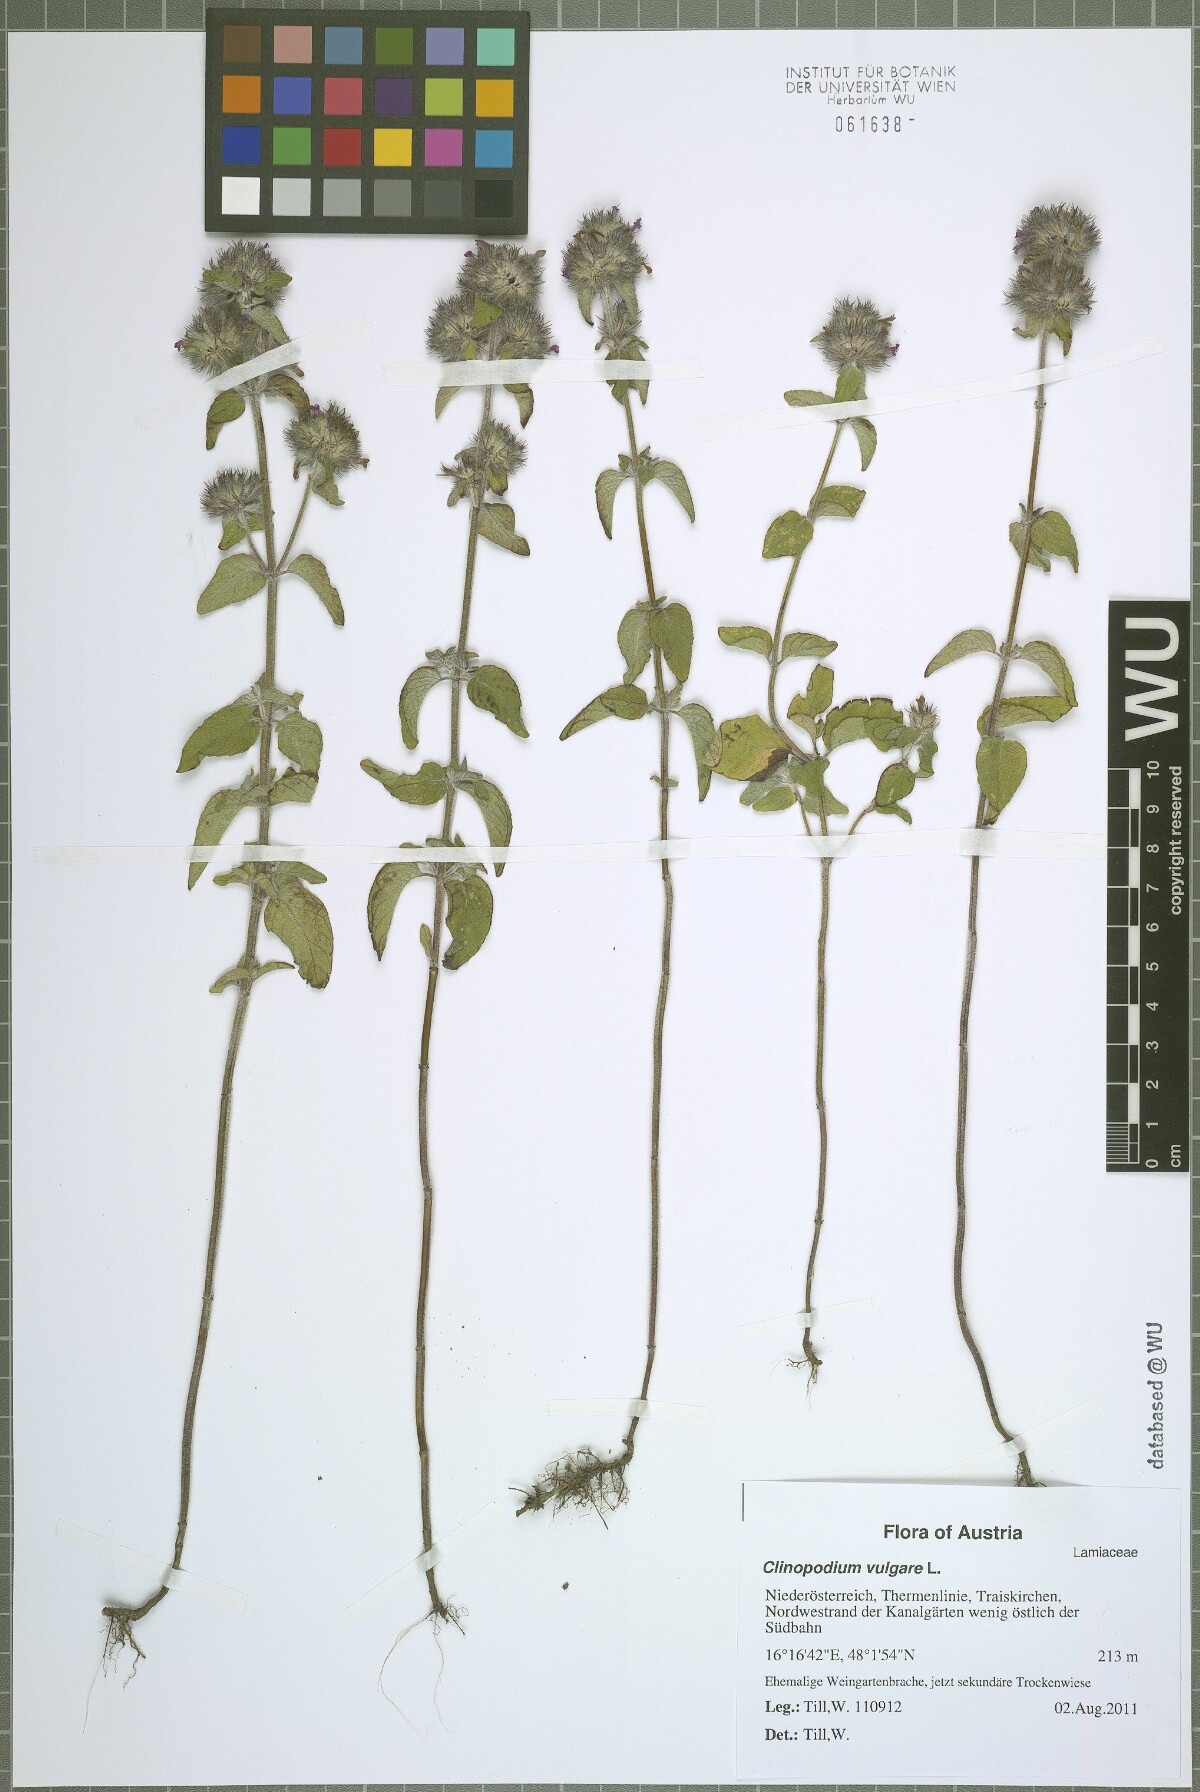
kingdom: Plantae
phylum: Tracheophyta
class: Magnoliopsida
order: Lamiales
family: Lamiaceae
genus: Clinopodium
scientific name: Clinopodium vulgare
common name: Wild basil
